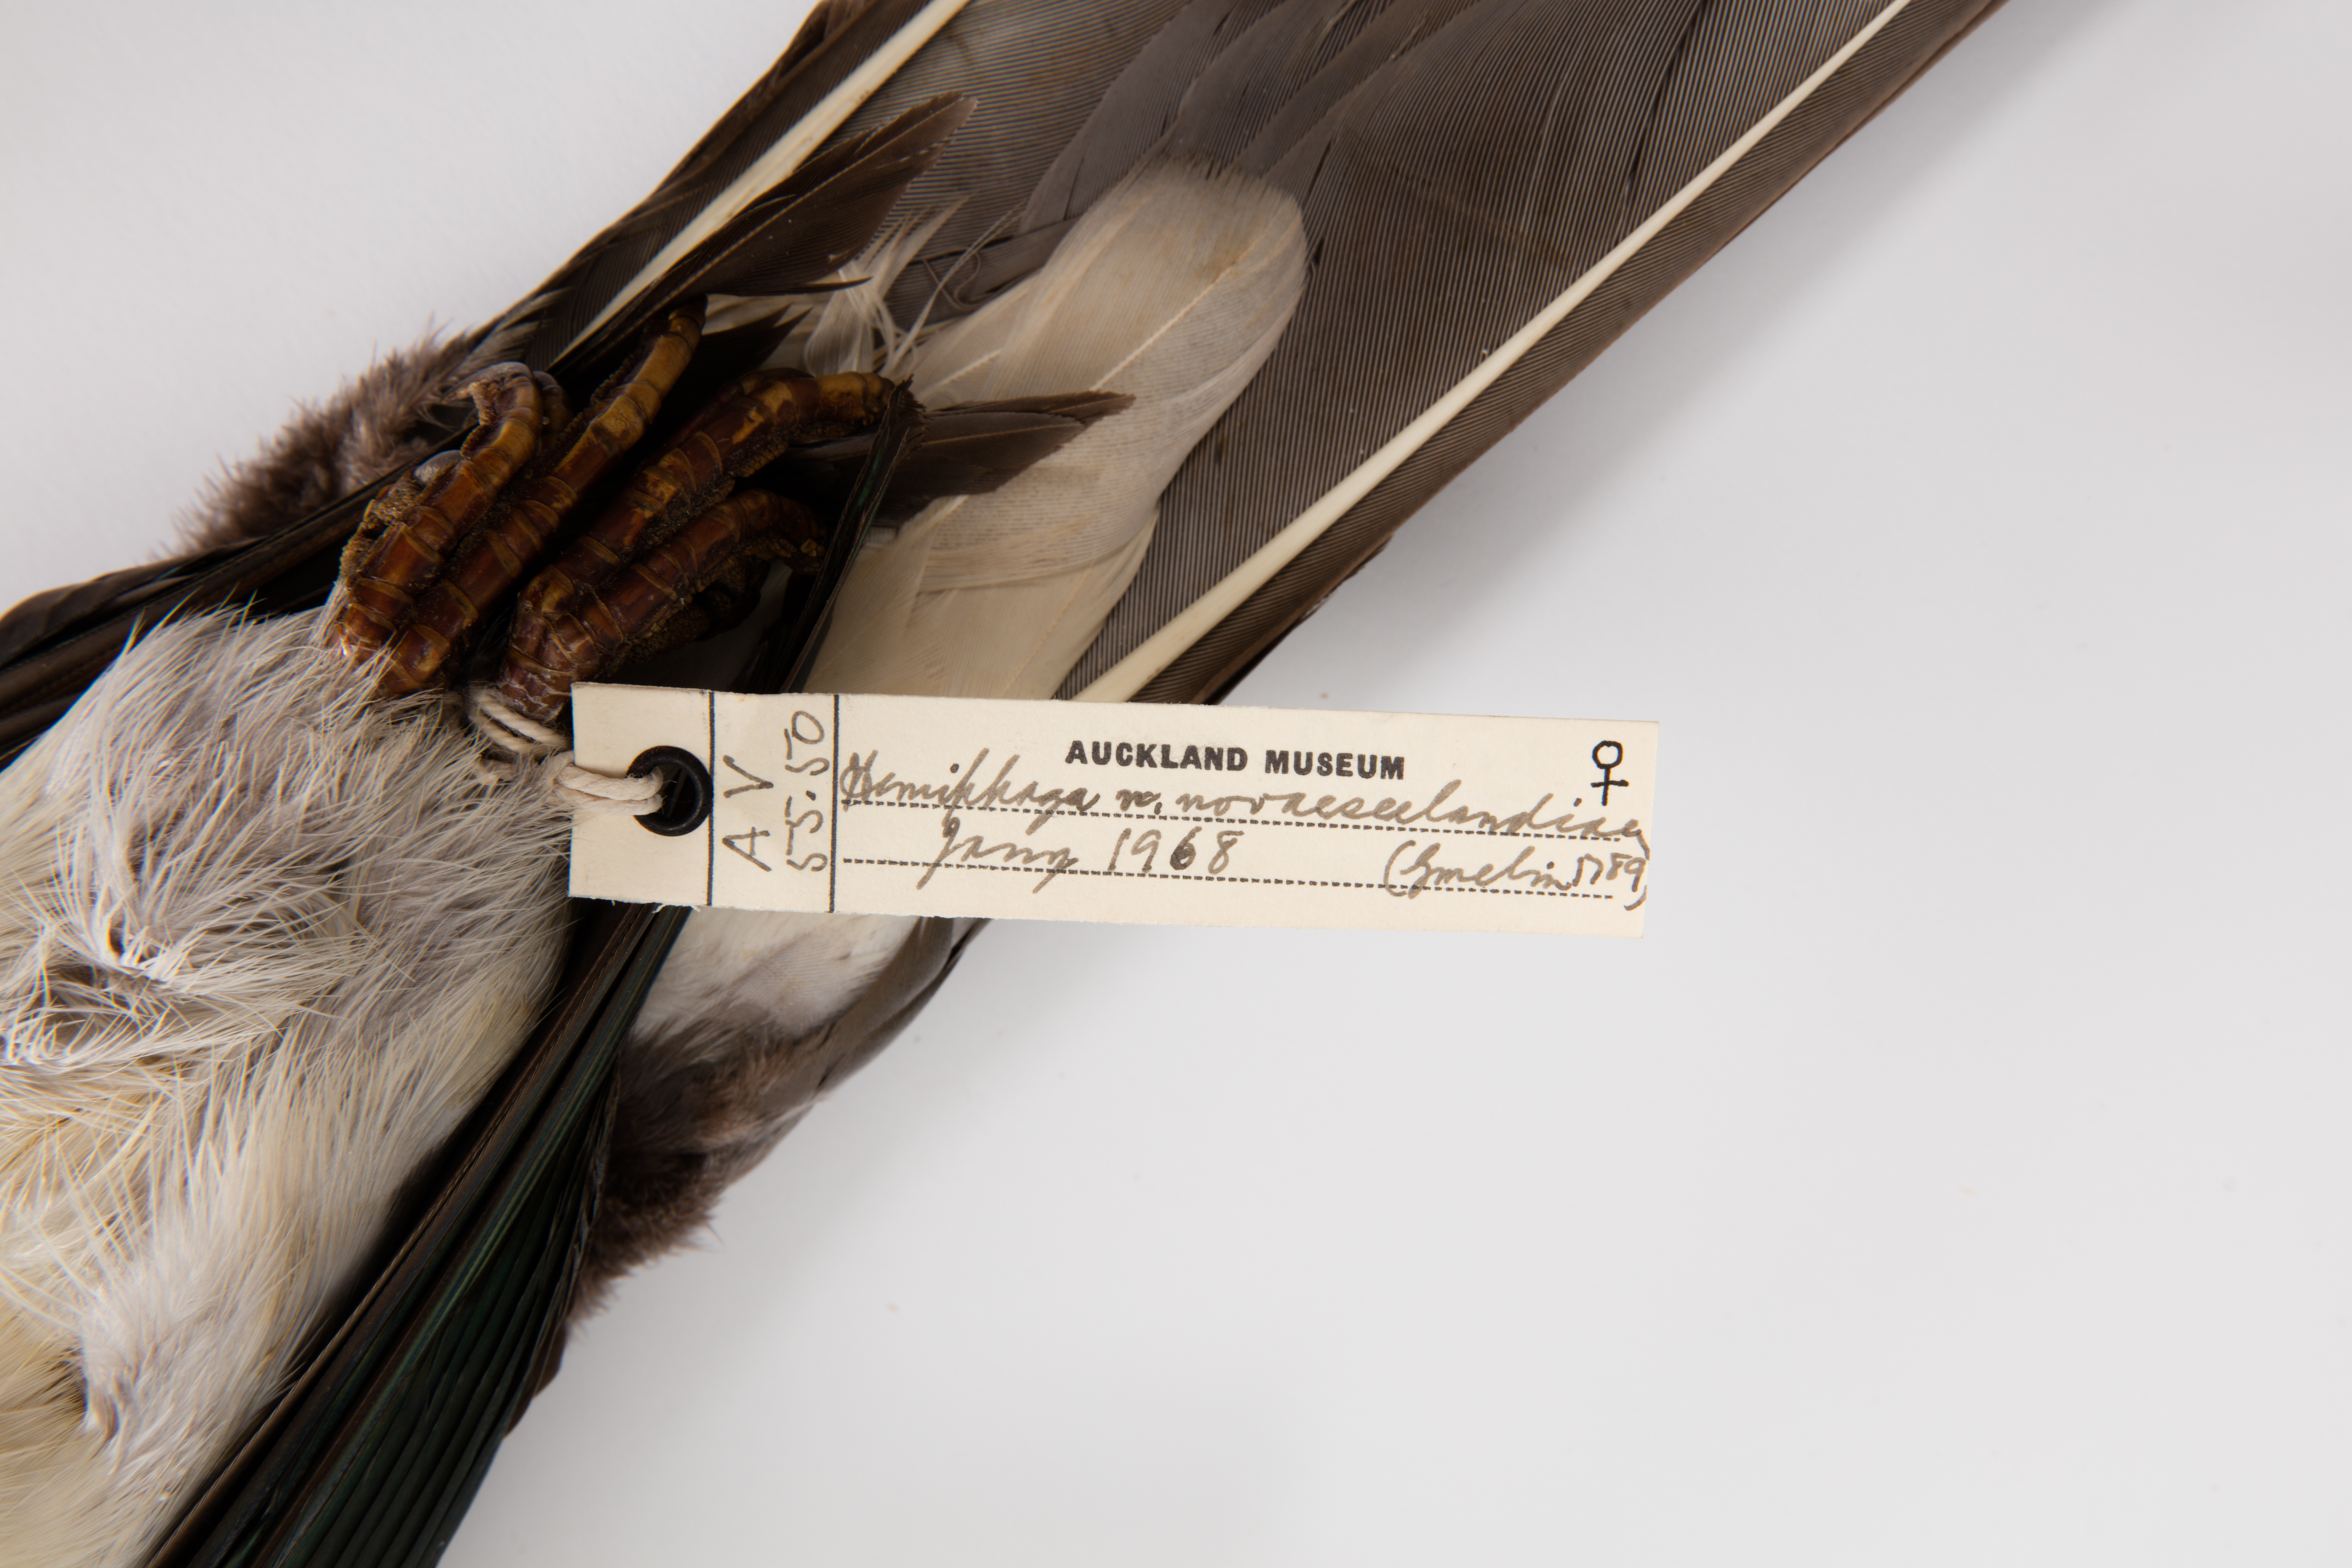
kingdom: Animalia
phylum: Chordata
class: Aves
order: Columbiformes
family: Columbidae
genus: Hemiphaga
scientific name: Hemiphaga novaeseelandiae
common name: New zealand pigeon
